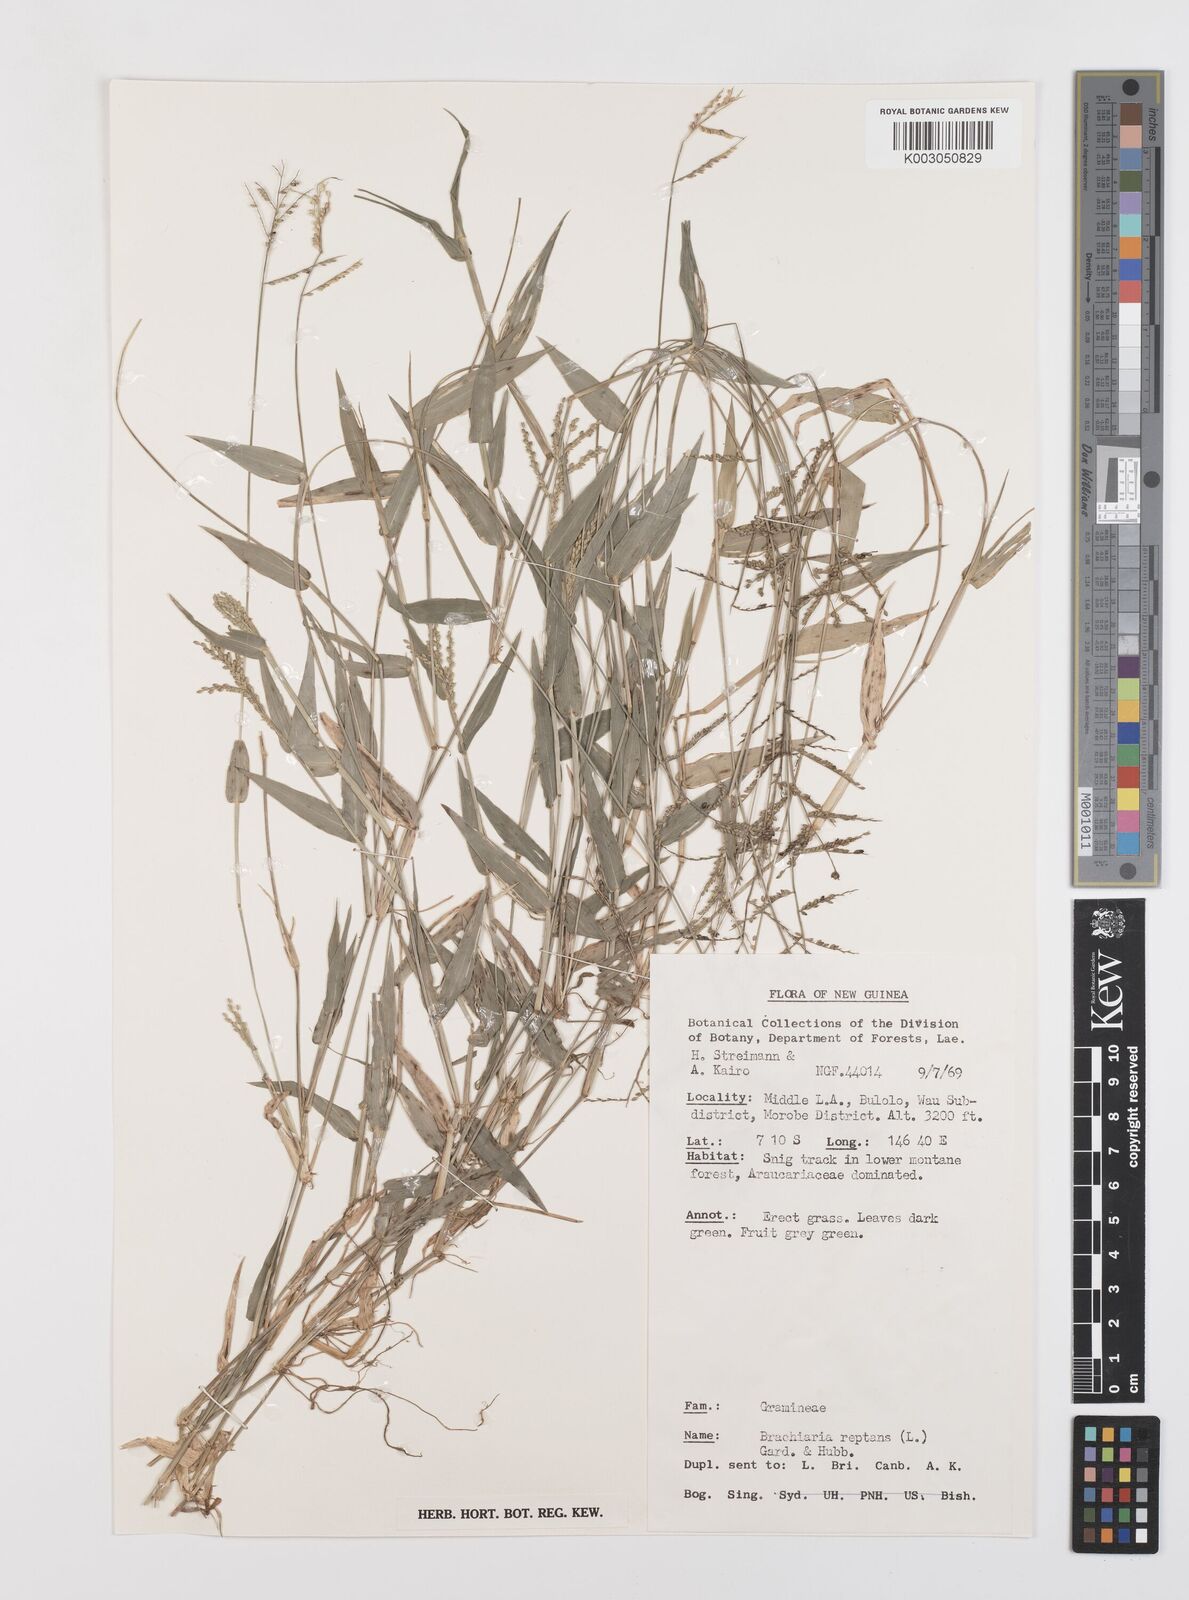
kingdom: Plantae
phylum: Tracheophyta
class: Liliopsida
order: Poales
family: Poaceae
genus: Urochloa
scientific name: Urochloa reptans
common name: Sprawling signalgrass
